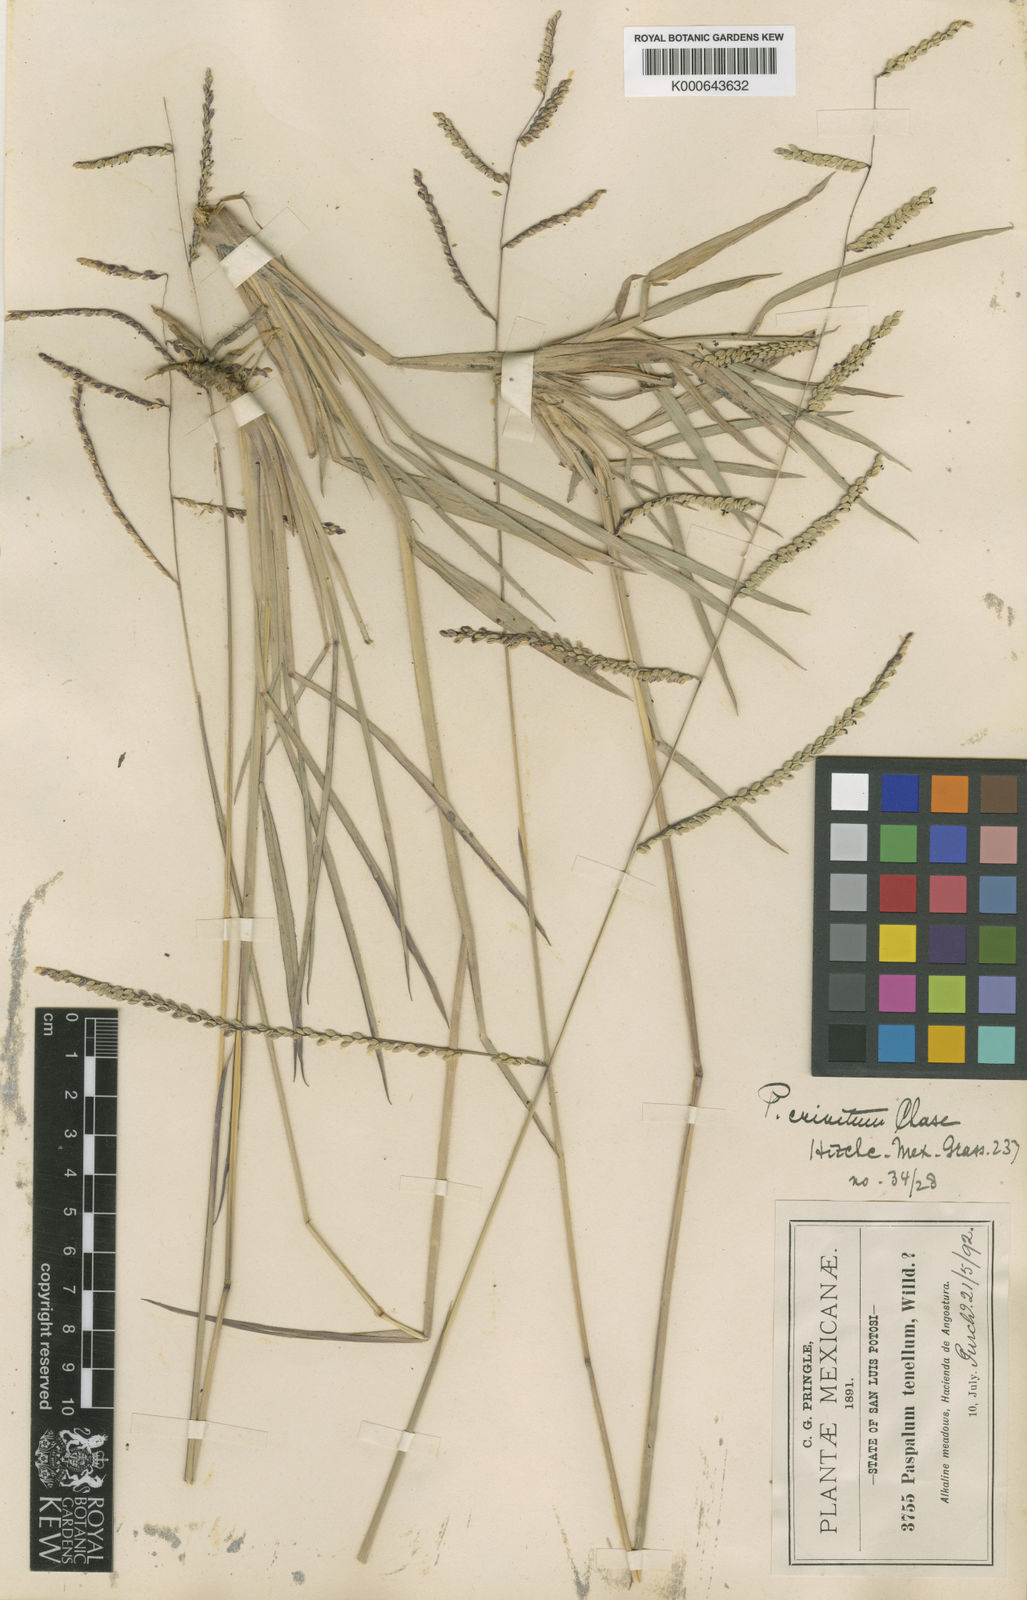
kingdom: Plantae
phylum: Tracheophyta
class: Liliopsida
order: Poales
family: Poaceae
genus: Paspalum
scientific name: Paspalum
